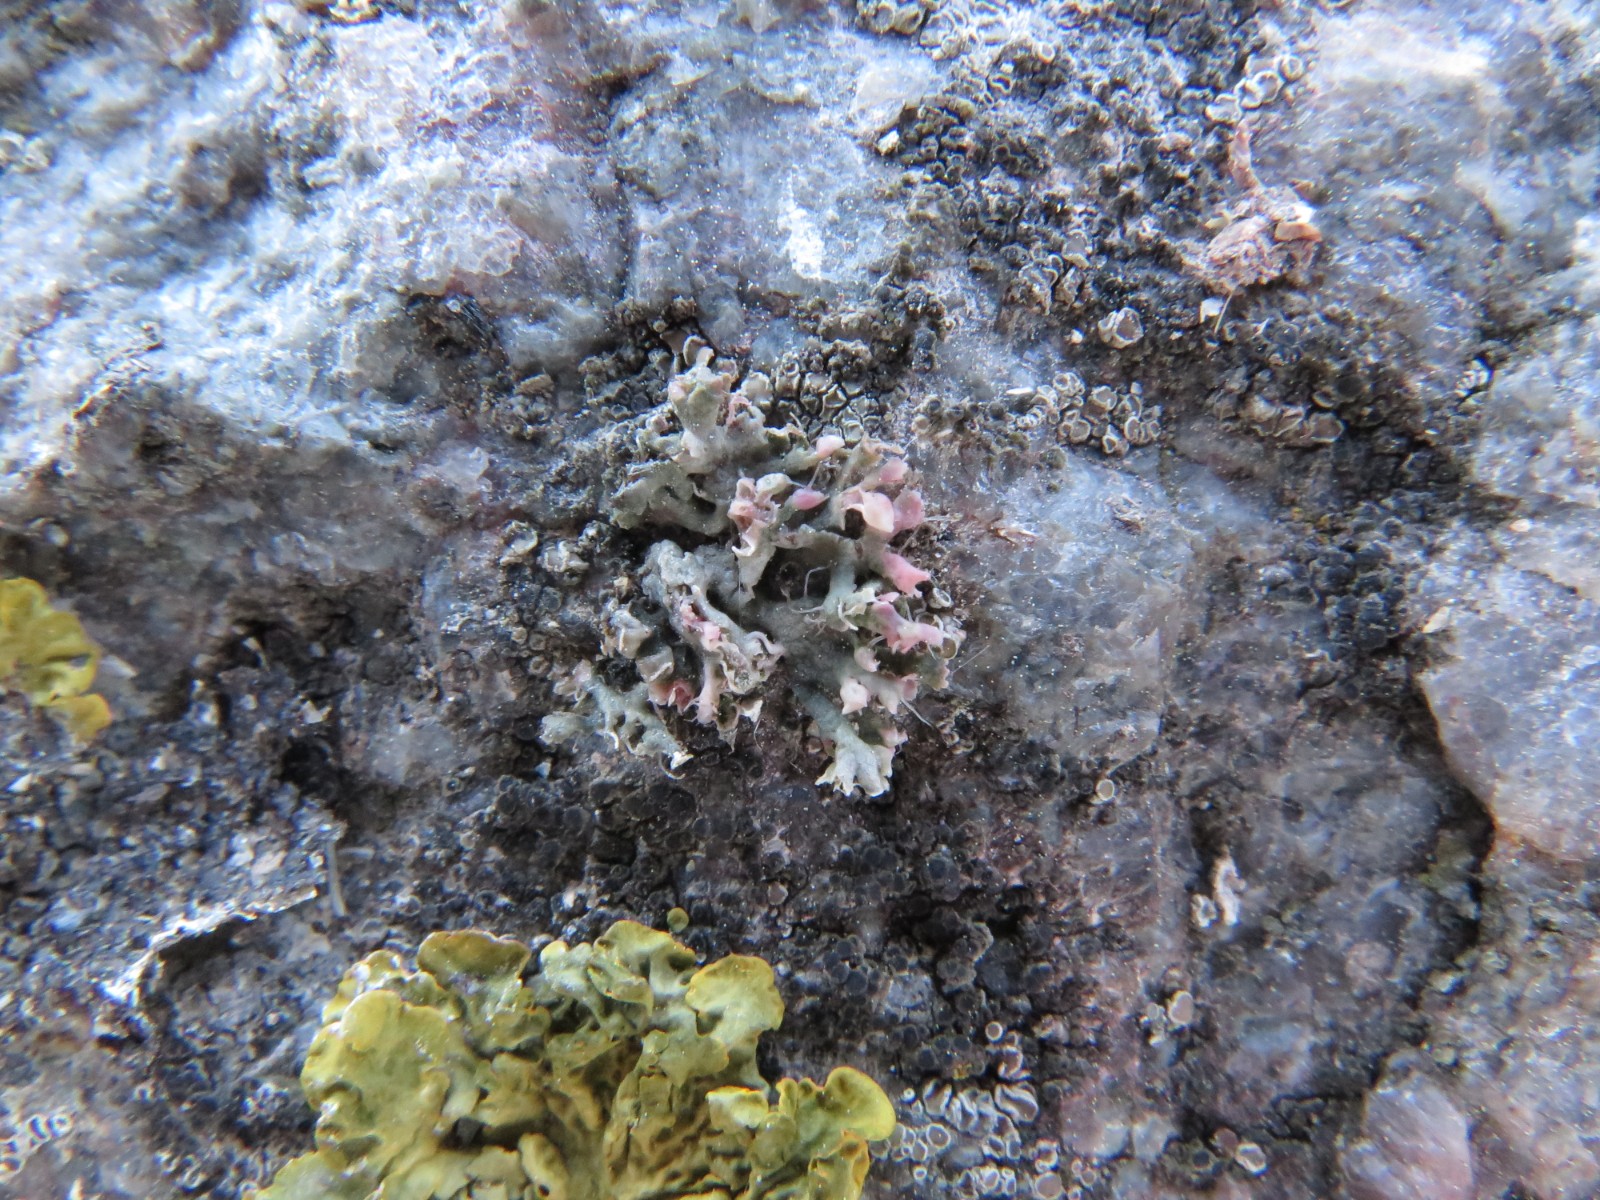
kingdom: Fungi
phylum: Ascomycota
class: Lecanoromycetes
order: Caliciales
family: Physciaceae
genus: Physcia
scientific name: Physcia adscendens
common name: hætte-rosetlav
